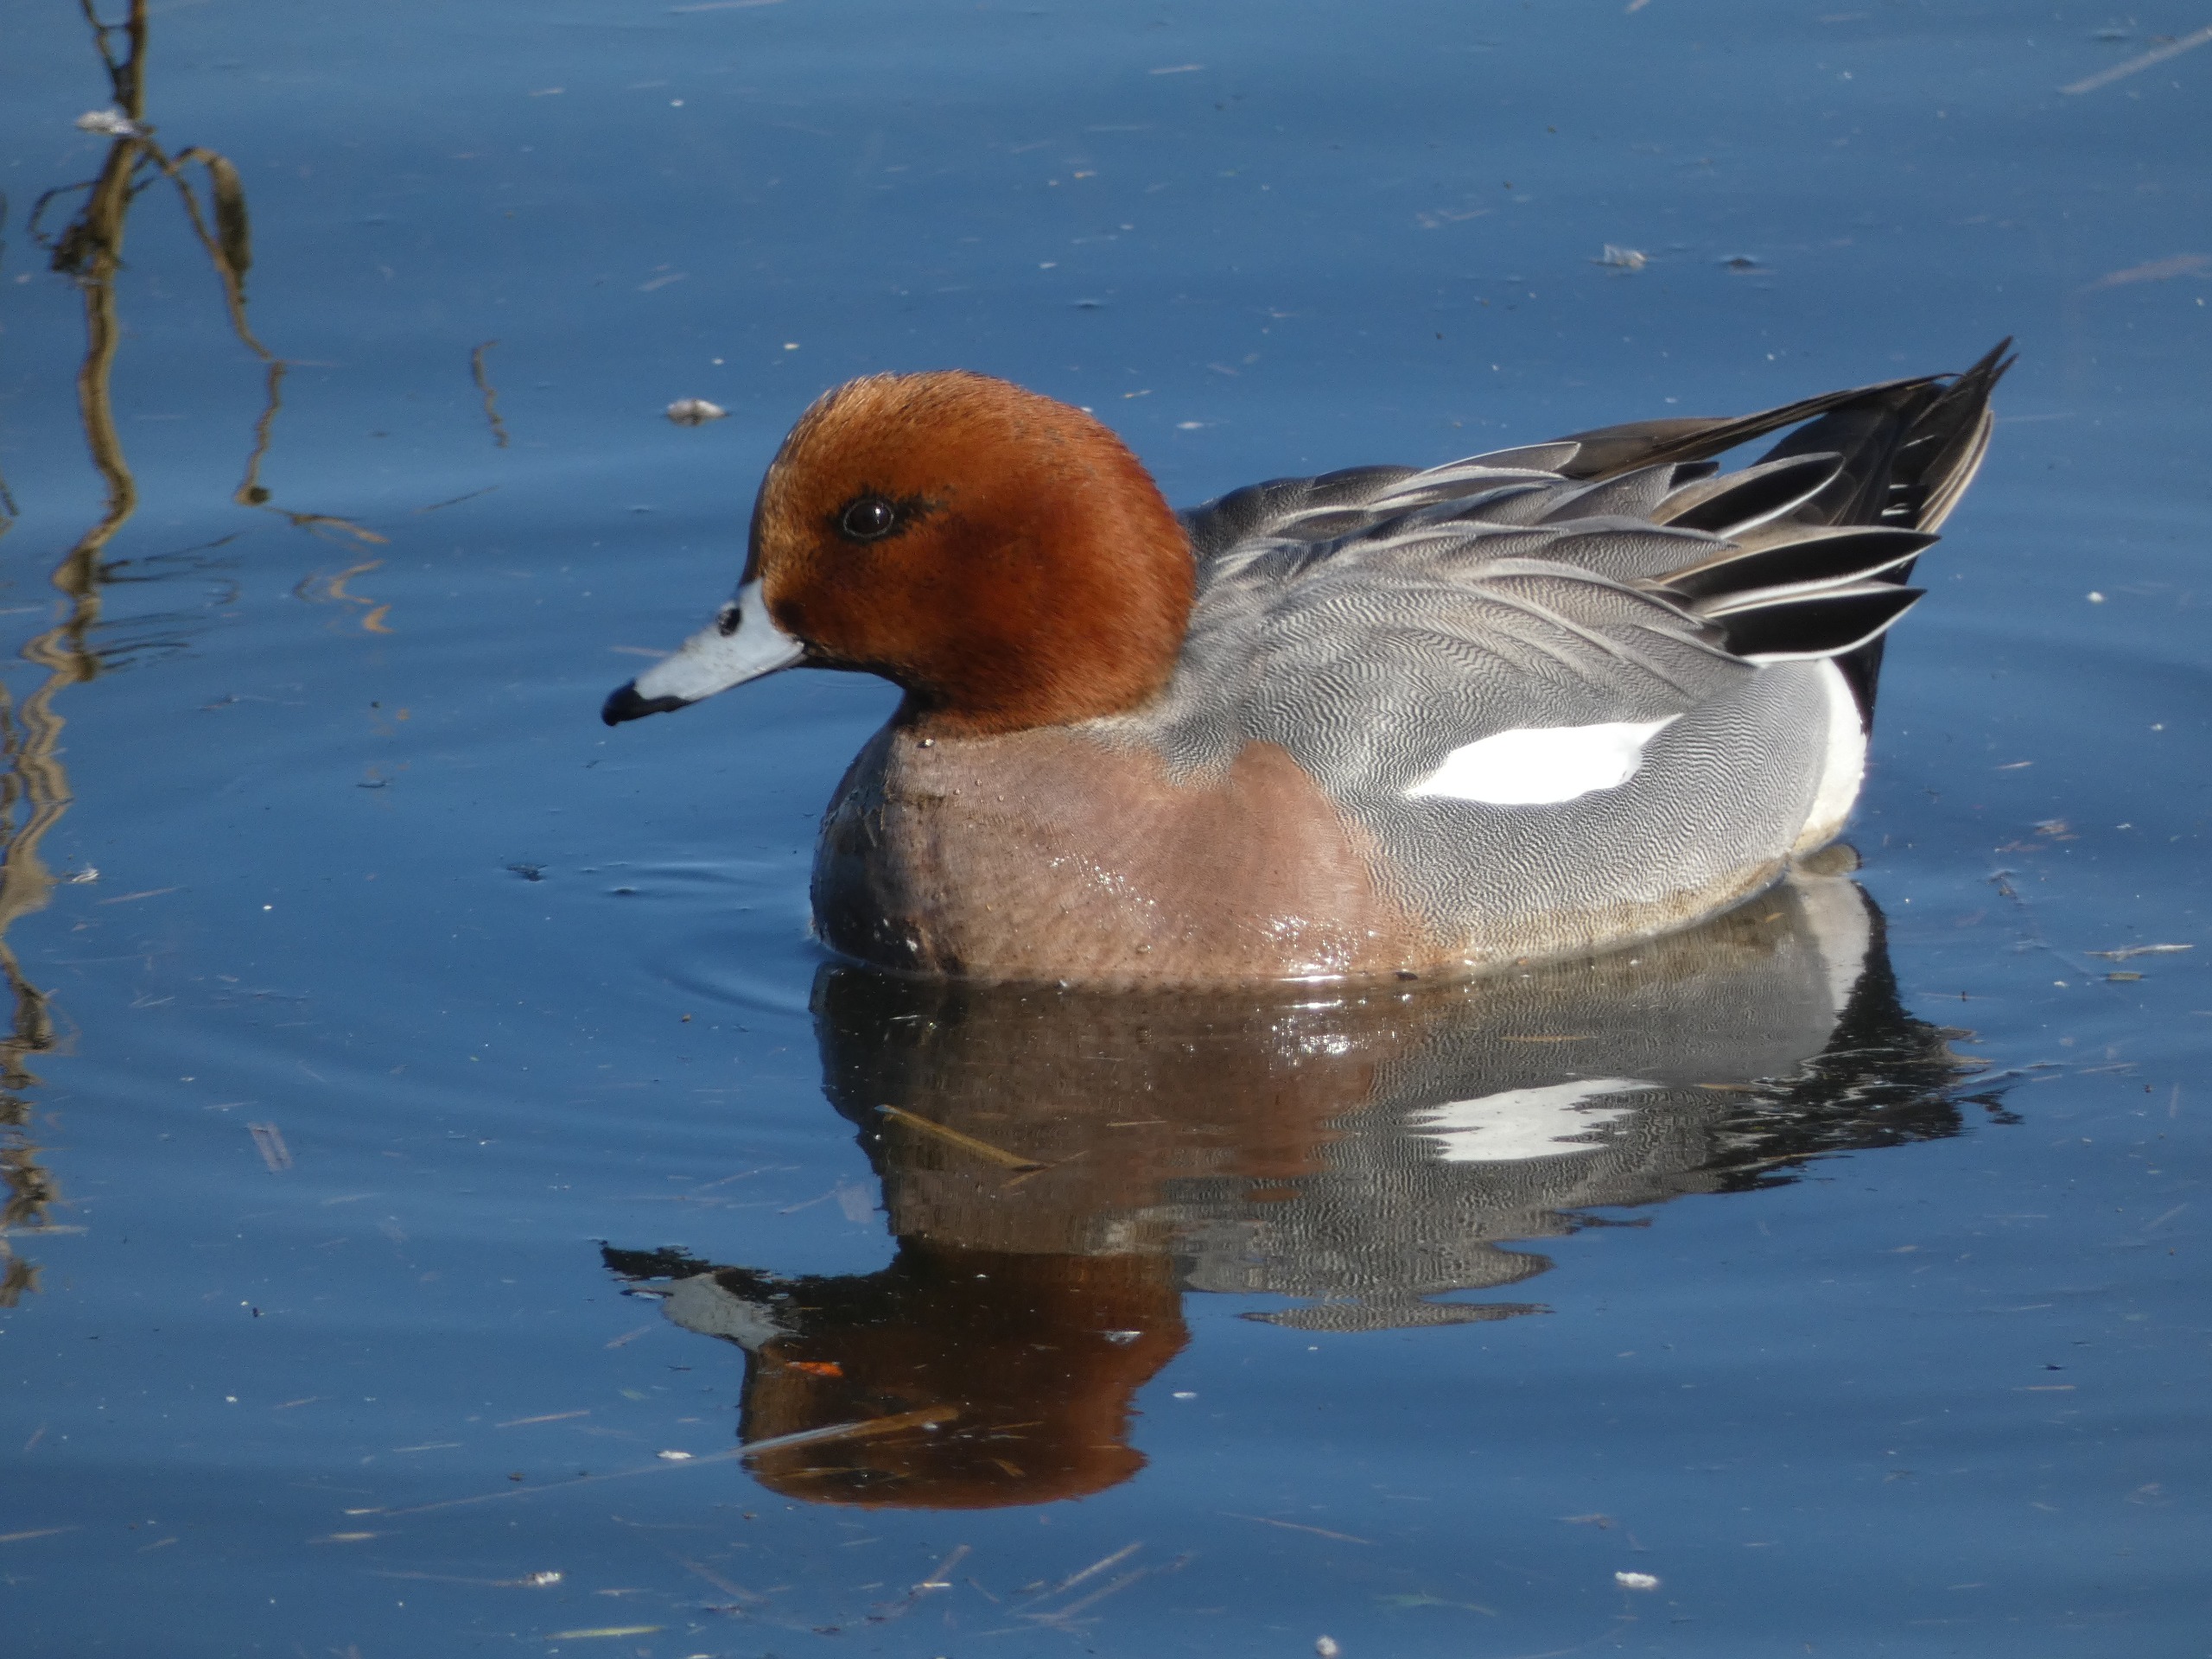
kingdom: Animalia
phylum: Chordata
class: Aves
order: Anseriformes
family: Anatidae
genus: Mareca
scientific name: Mareca penelope
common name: Pibeand
